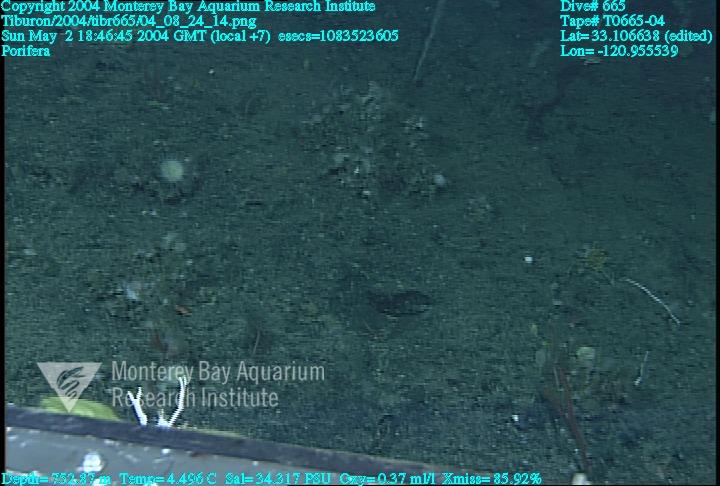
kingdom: Animalia
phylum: Porifera
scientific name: Porifera
